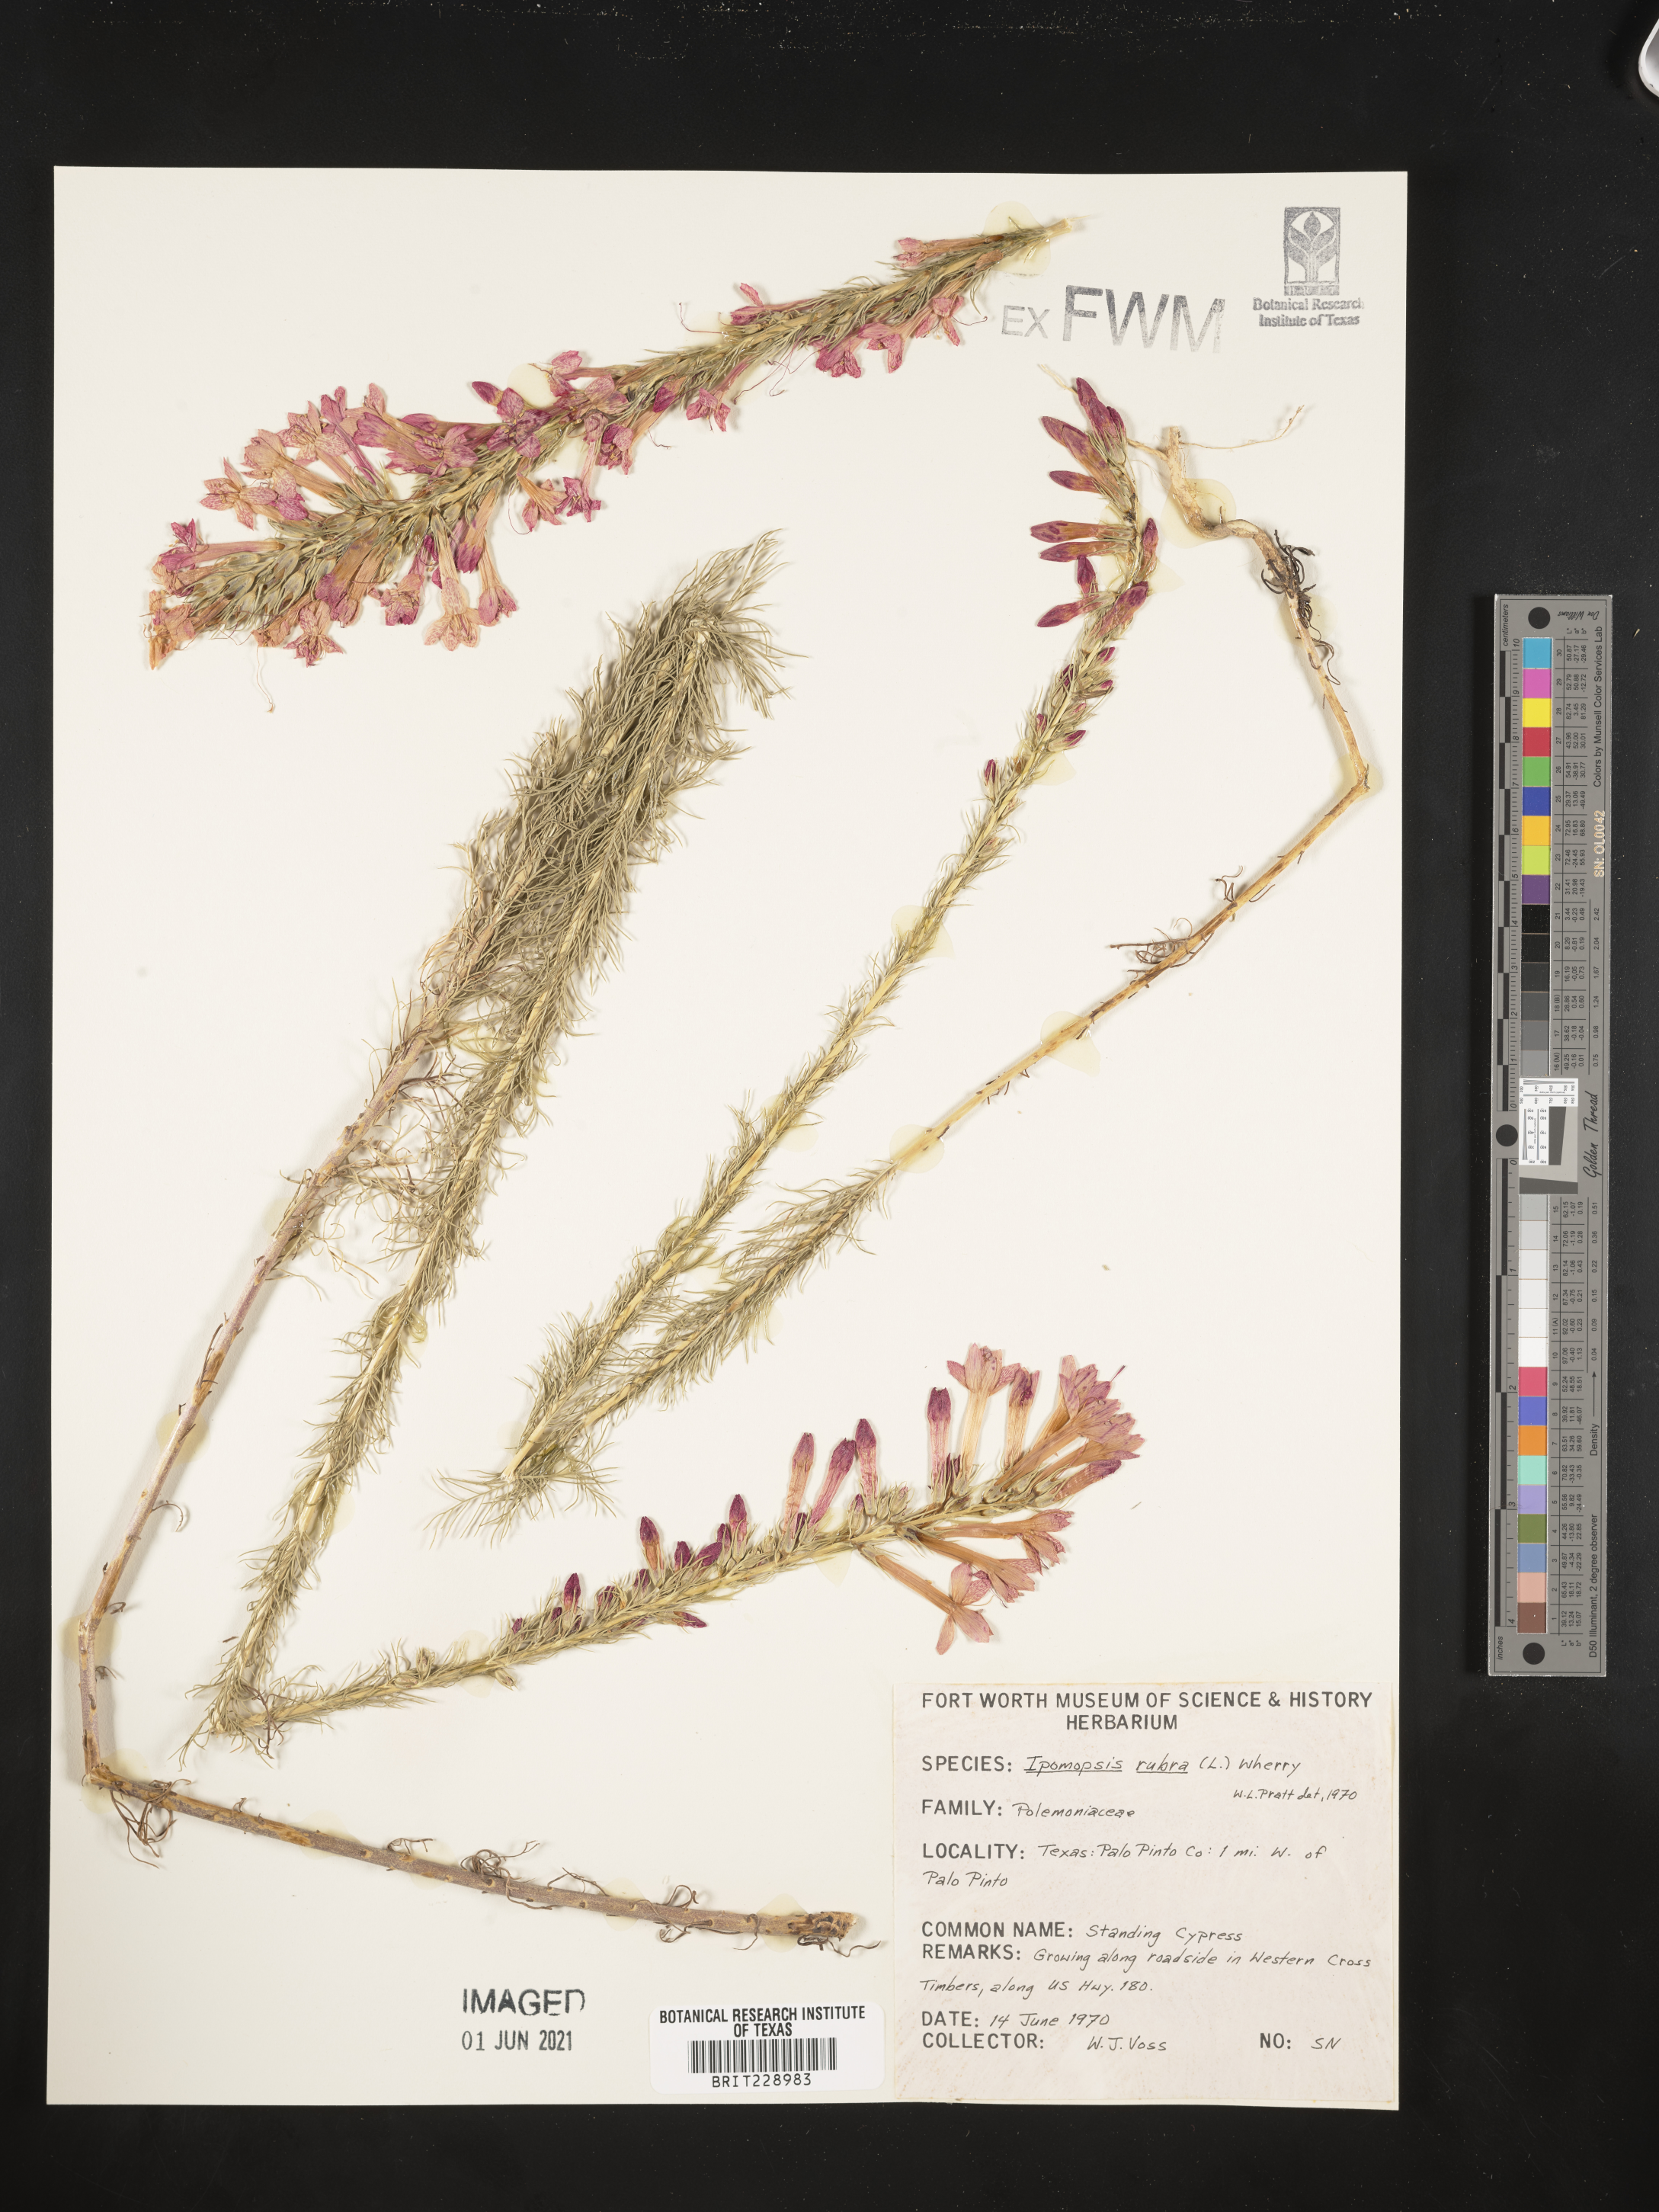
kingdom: Plantae
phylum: Tracheophyta
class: Magnoliopsida
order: Ericales
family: Polemoniaceae
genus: Ipomopsis
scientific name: Ipomopsis rubra
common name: Skyrocket
